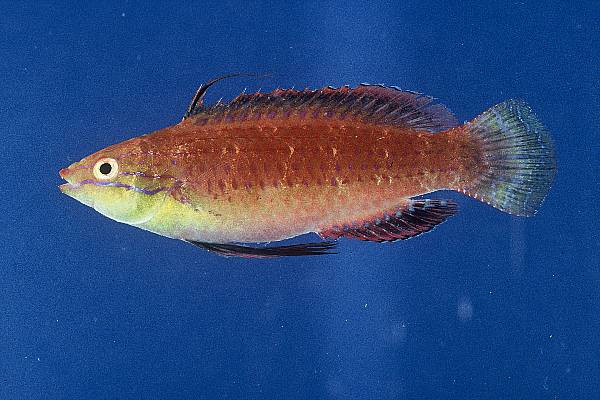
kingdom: Animalia
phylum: Chordata
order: Perciformes
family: Labridae
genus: Cirrhilabrus
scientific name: Cirrhilabrus rubriventralis
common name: Social wrasse
